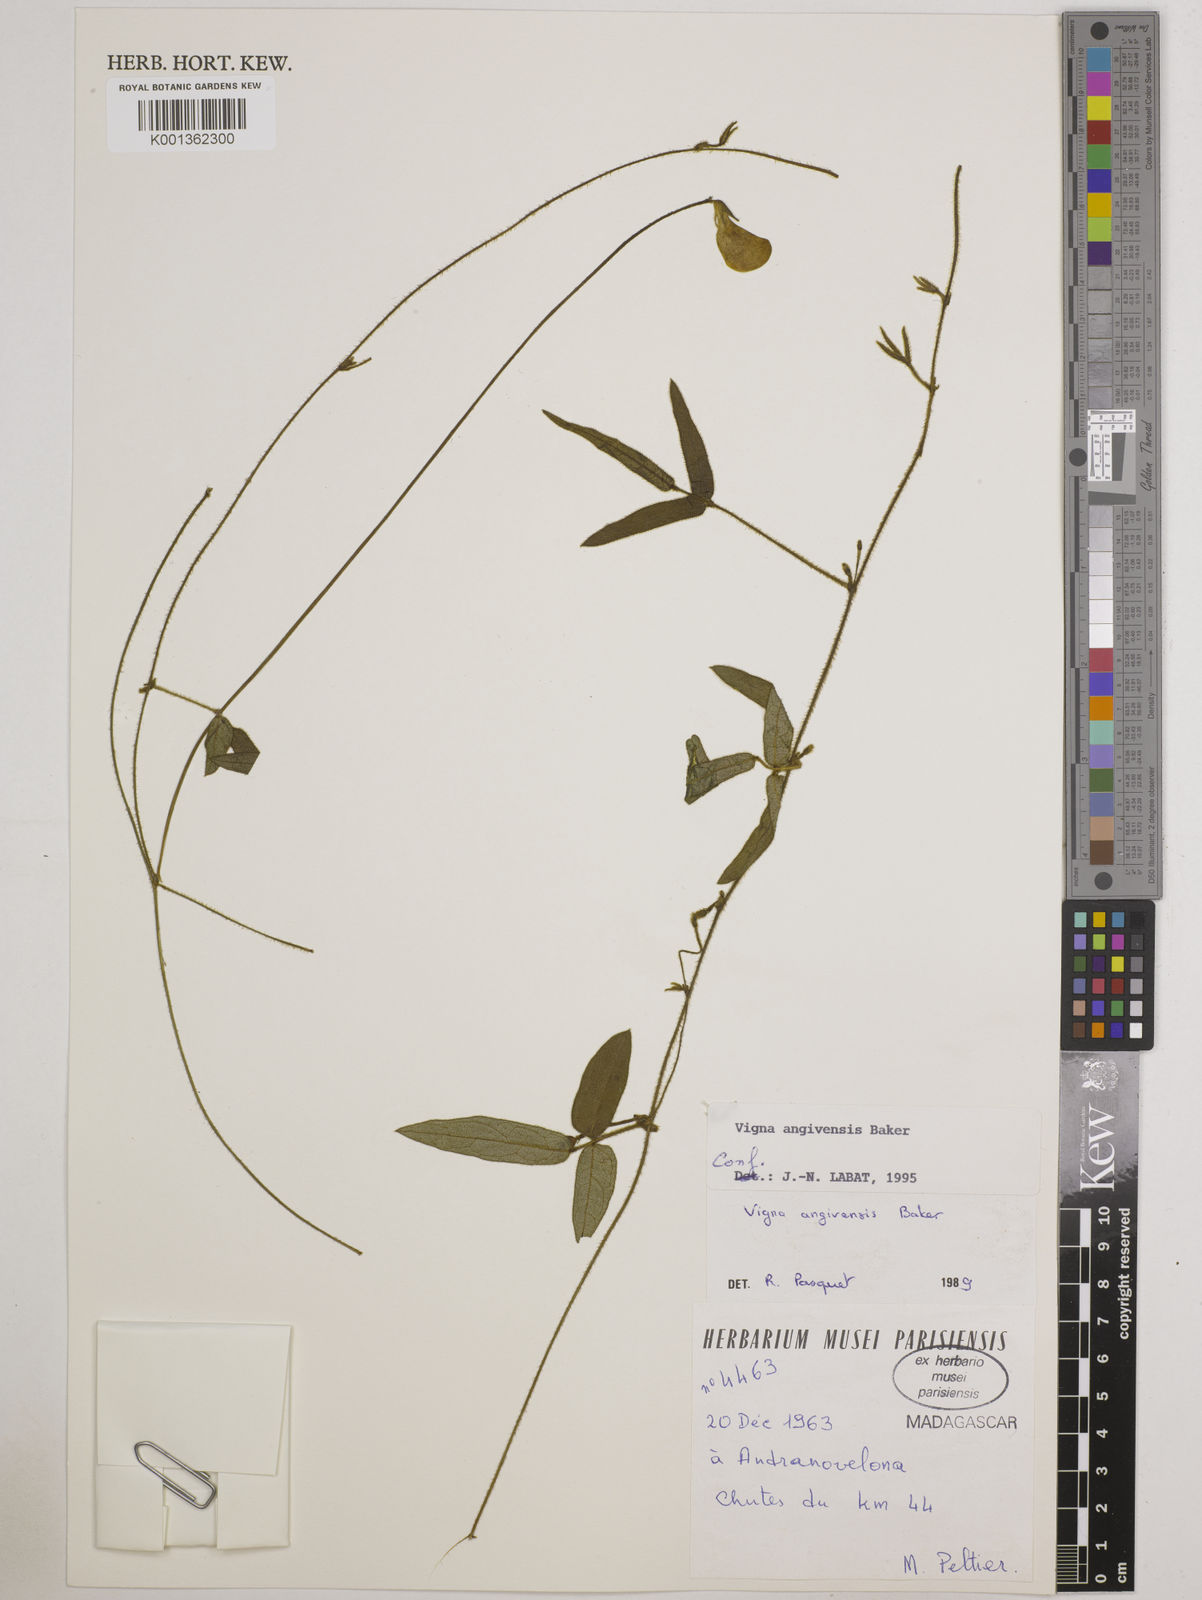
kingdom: Plantae
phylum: Tracheophyta
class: Magnoliopsida
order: Fabales
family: Fabaceae
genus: Vigna
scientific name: Vigna angivensis
